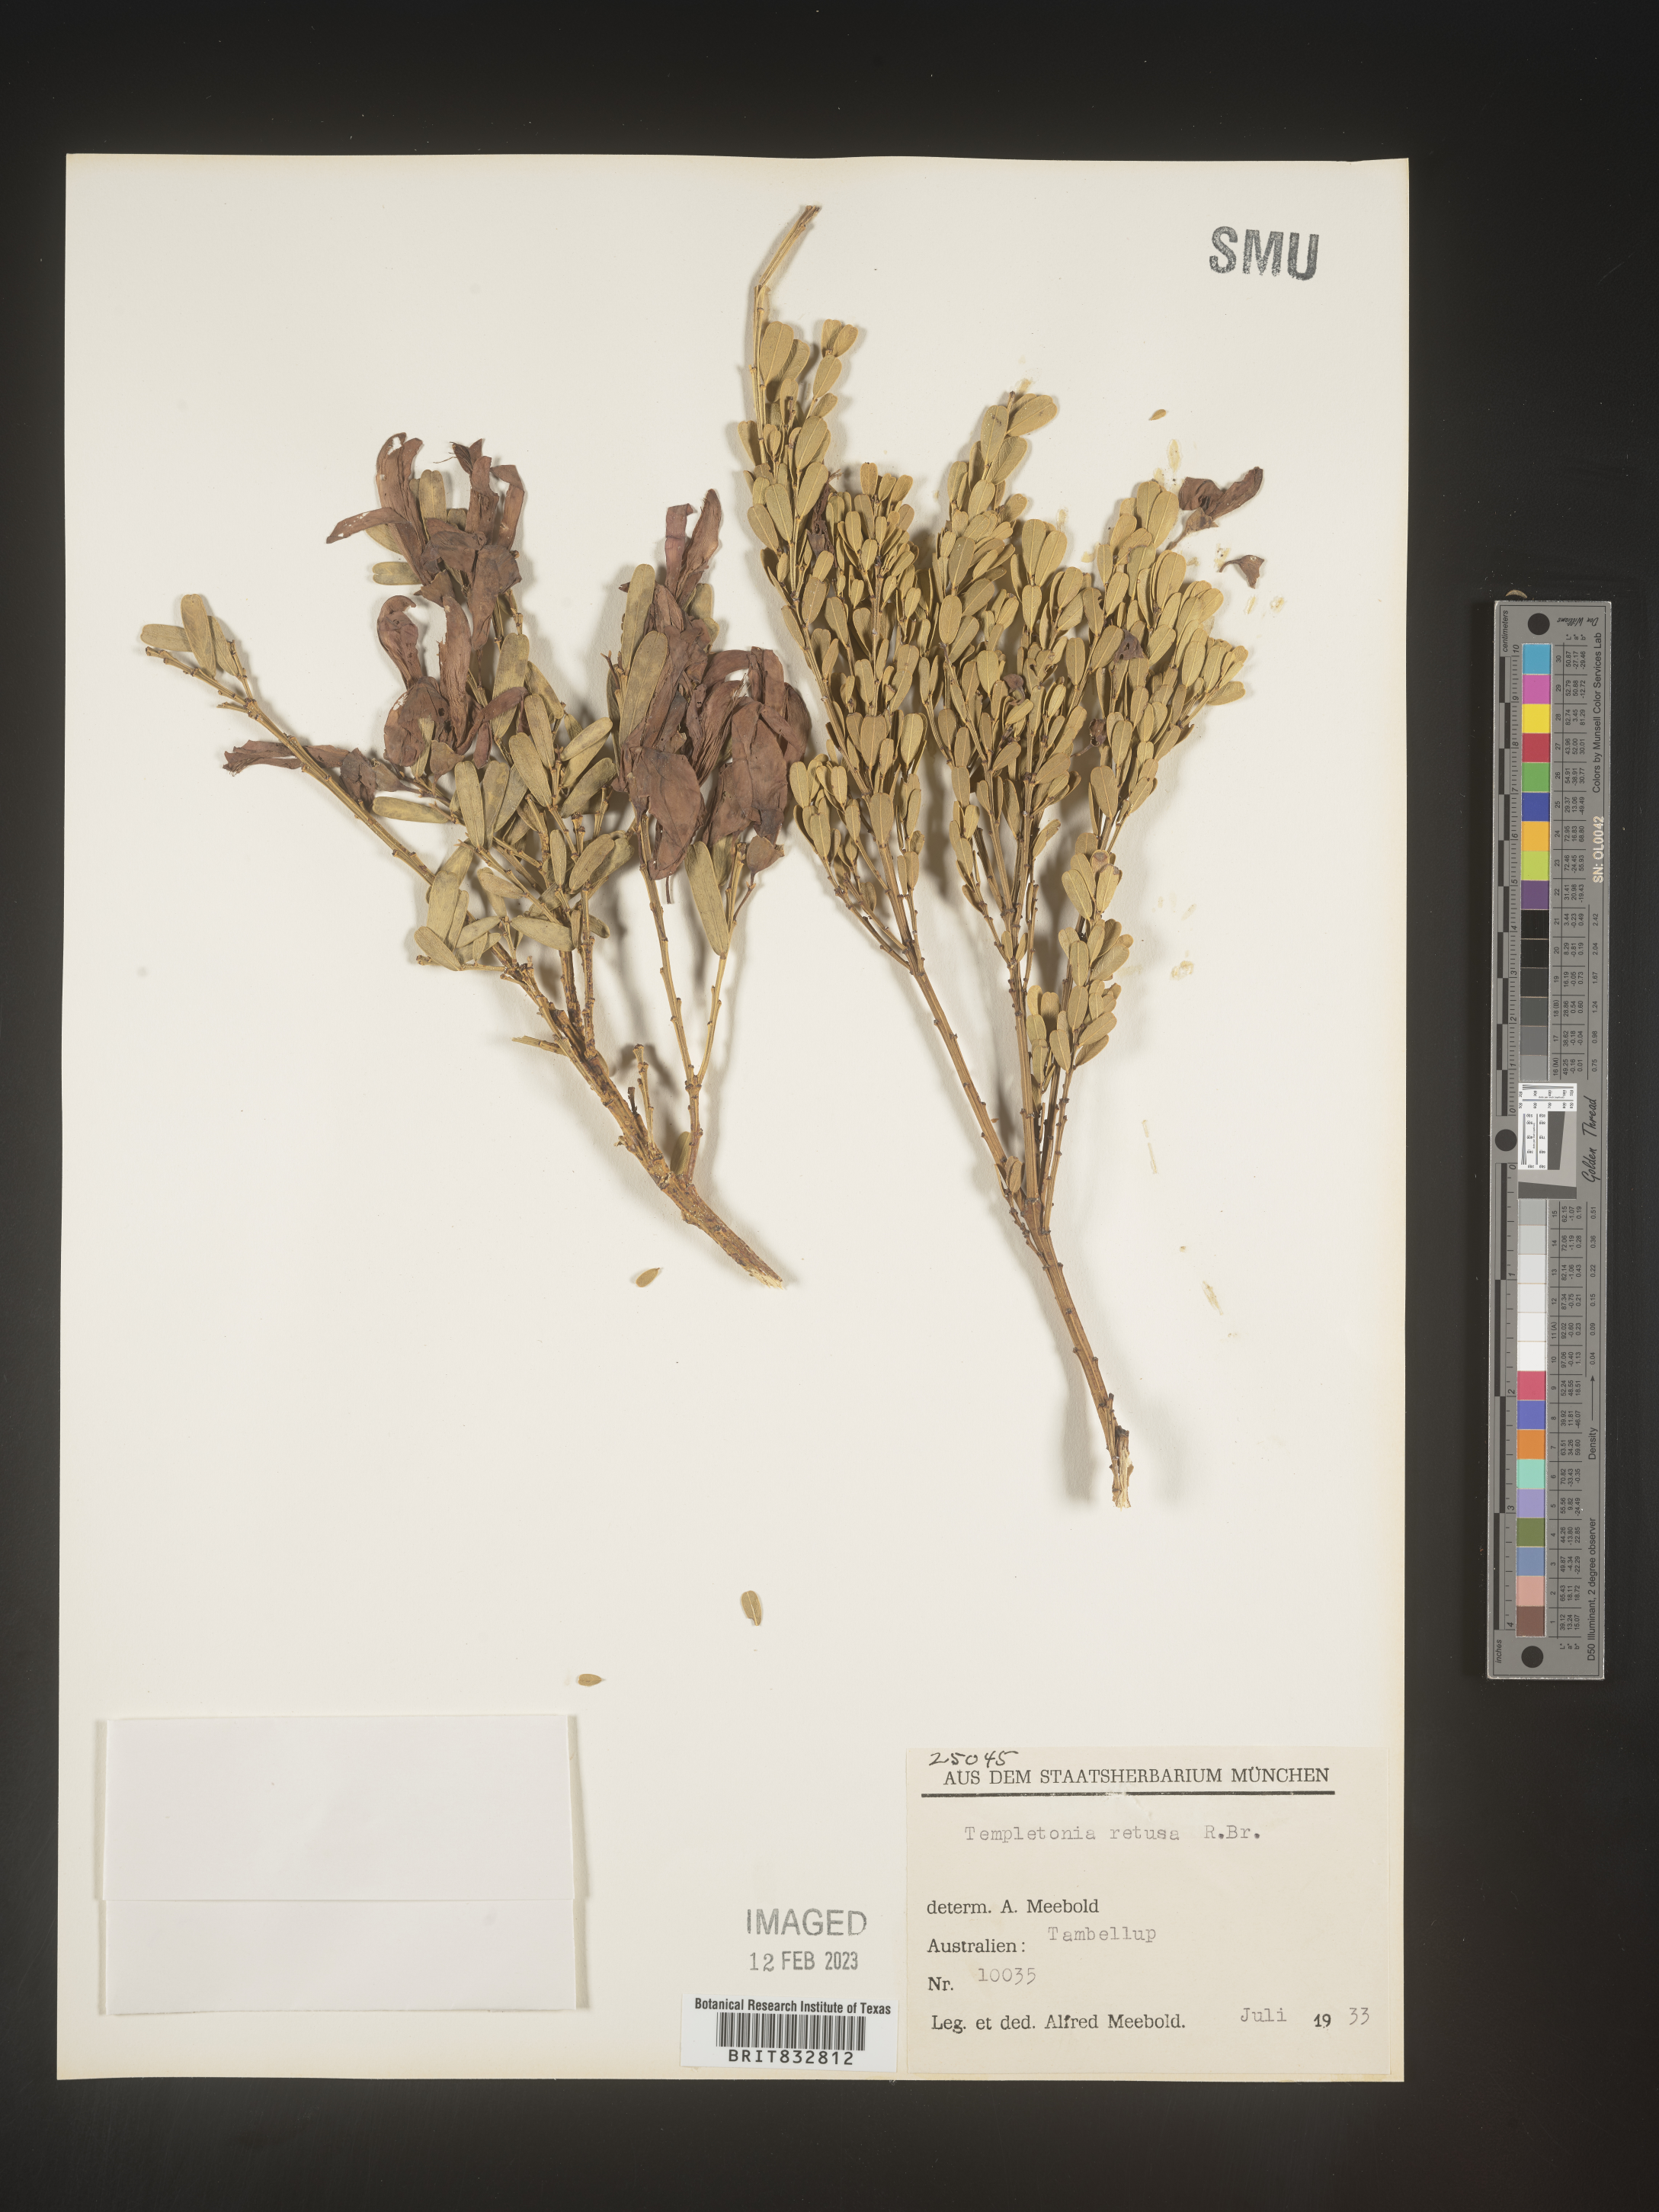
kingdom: Plantae
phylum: Tracheophyta
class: Magnoliopsida
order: Fabales
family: Fabaceae
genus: Templetonia
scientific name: Templetonia
